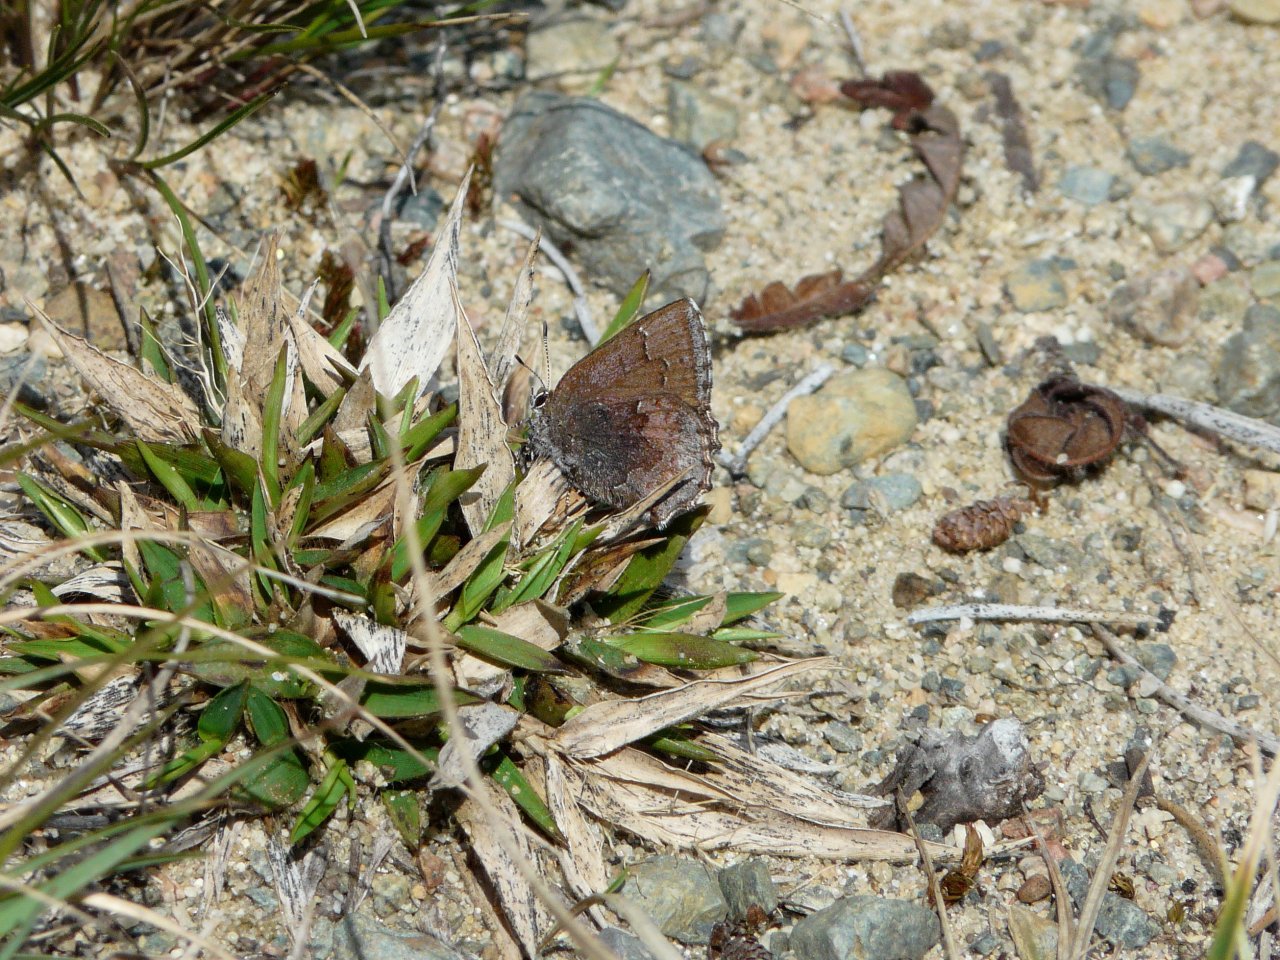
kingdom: Animalia
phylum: Arthropoda
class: Insecta
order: Lepidoptera
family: Lycaenidae
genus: Callophrys
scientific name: Callophrys polios
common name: Hoary Elfin
